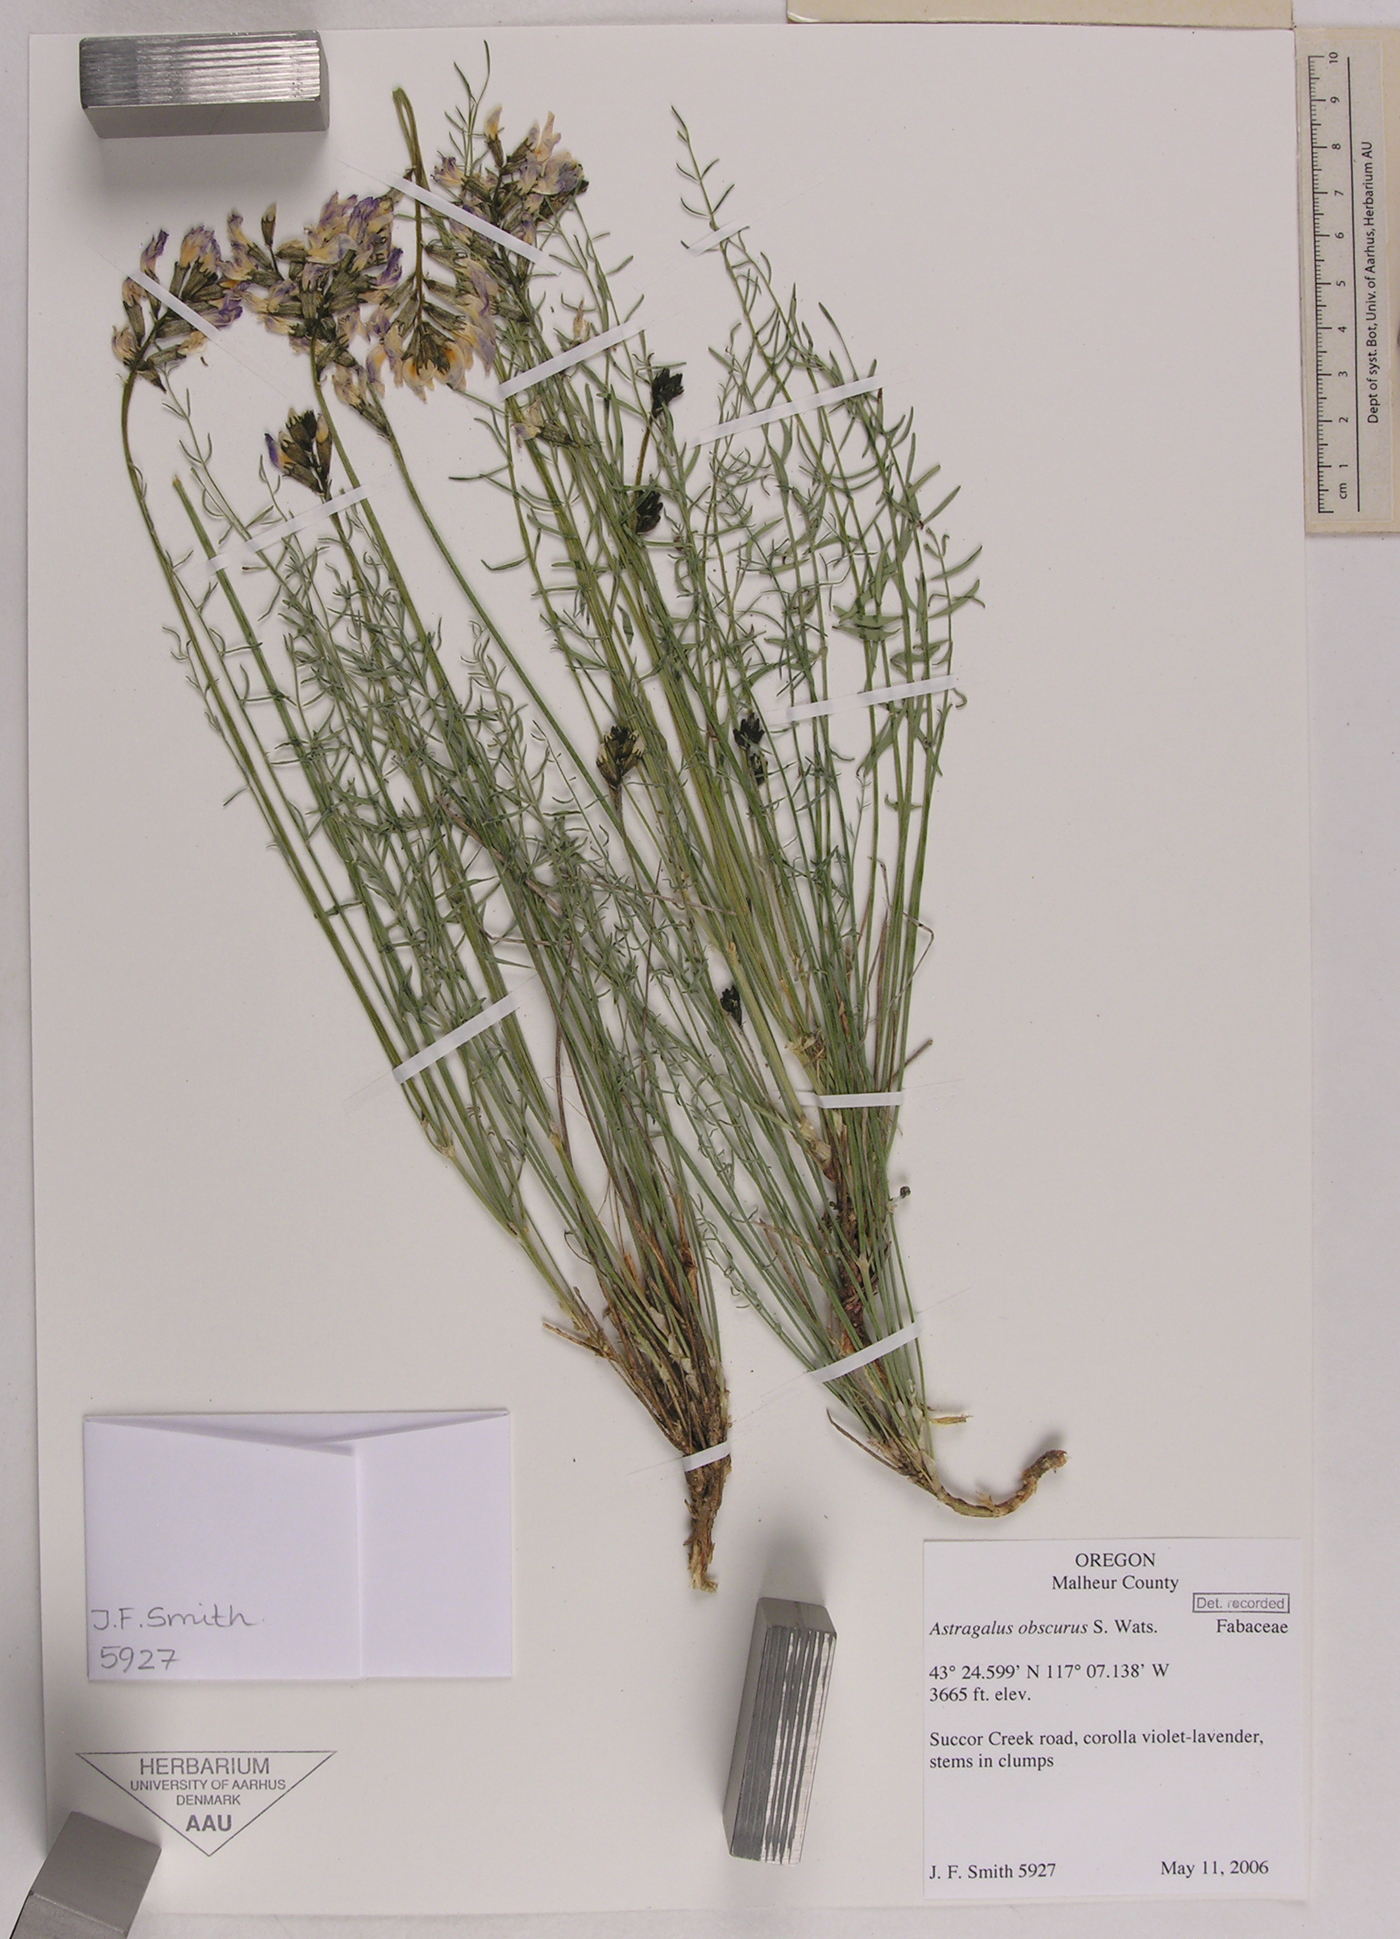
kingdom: Plantae
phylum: Tracheophyta
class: Magnoliopsida
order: Fabales
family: Fabaceae
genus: Astragalus
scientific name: Astragalus obscurus
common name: Arcane milk-vetch
